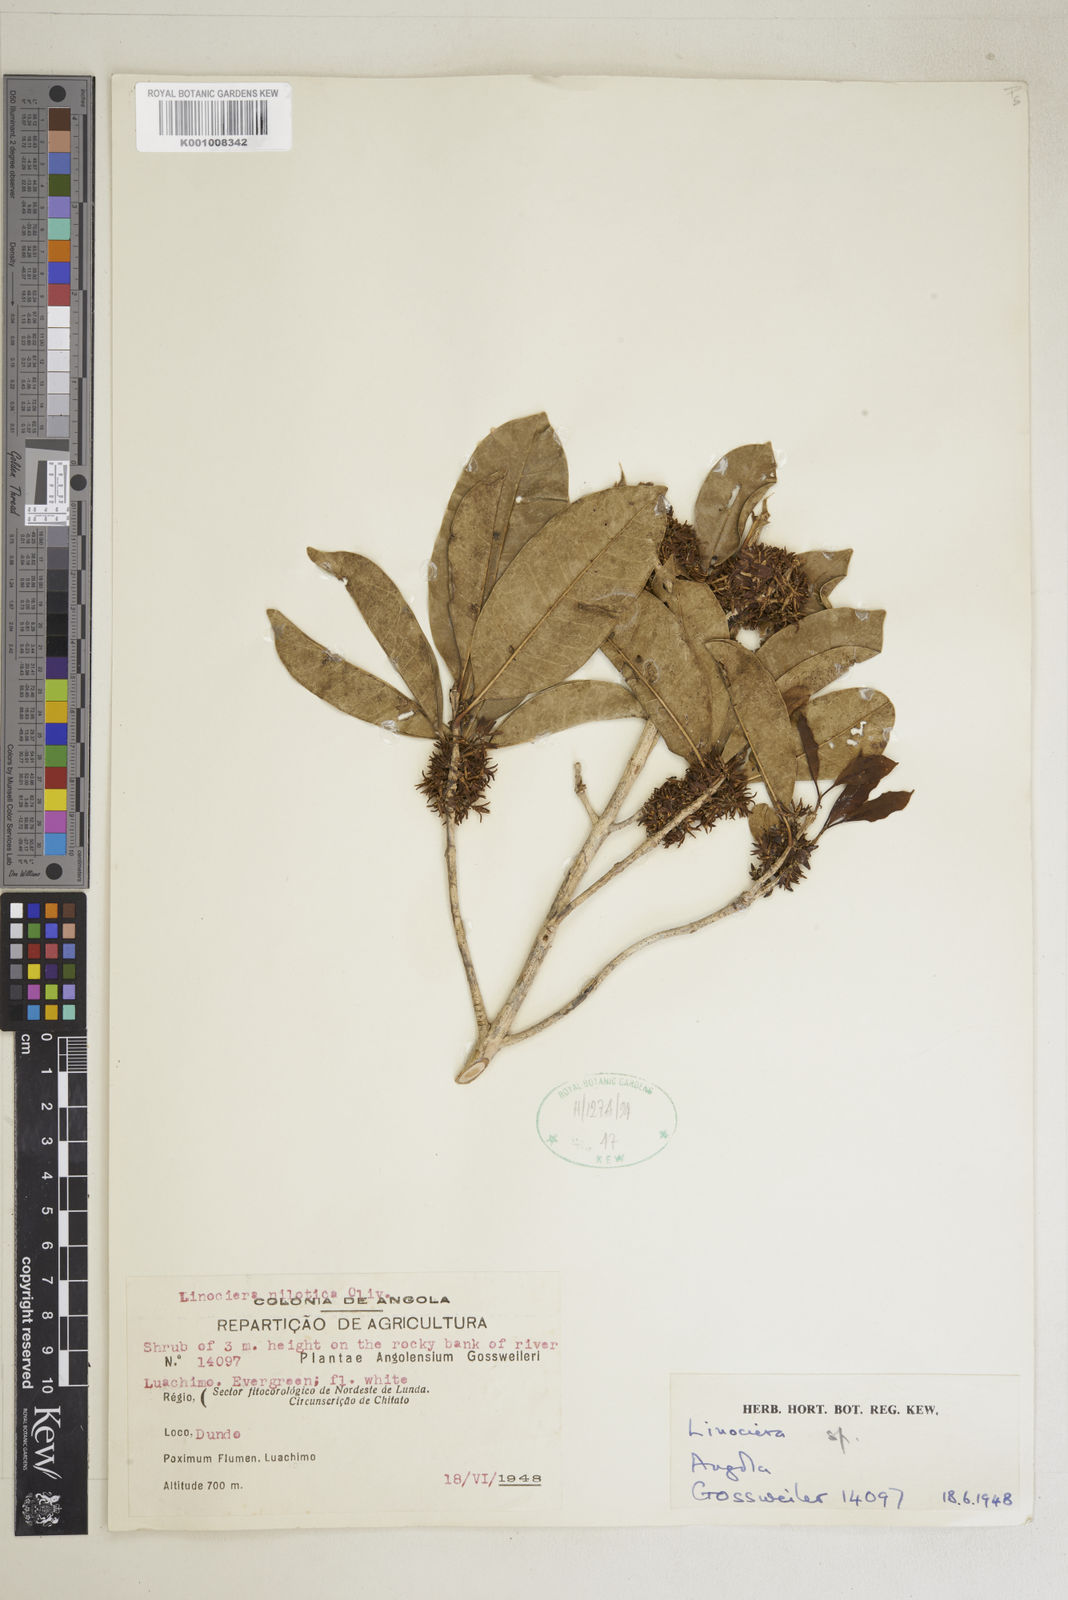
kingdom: Plantae
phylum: Tracheophyta
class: Magnoliopsida
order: Lamiales
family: Oleaceae
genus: Noronhia
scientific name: Noronhia nilotica
